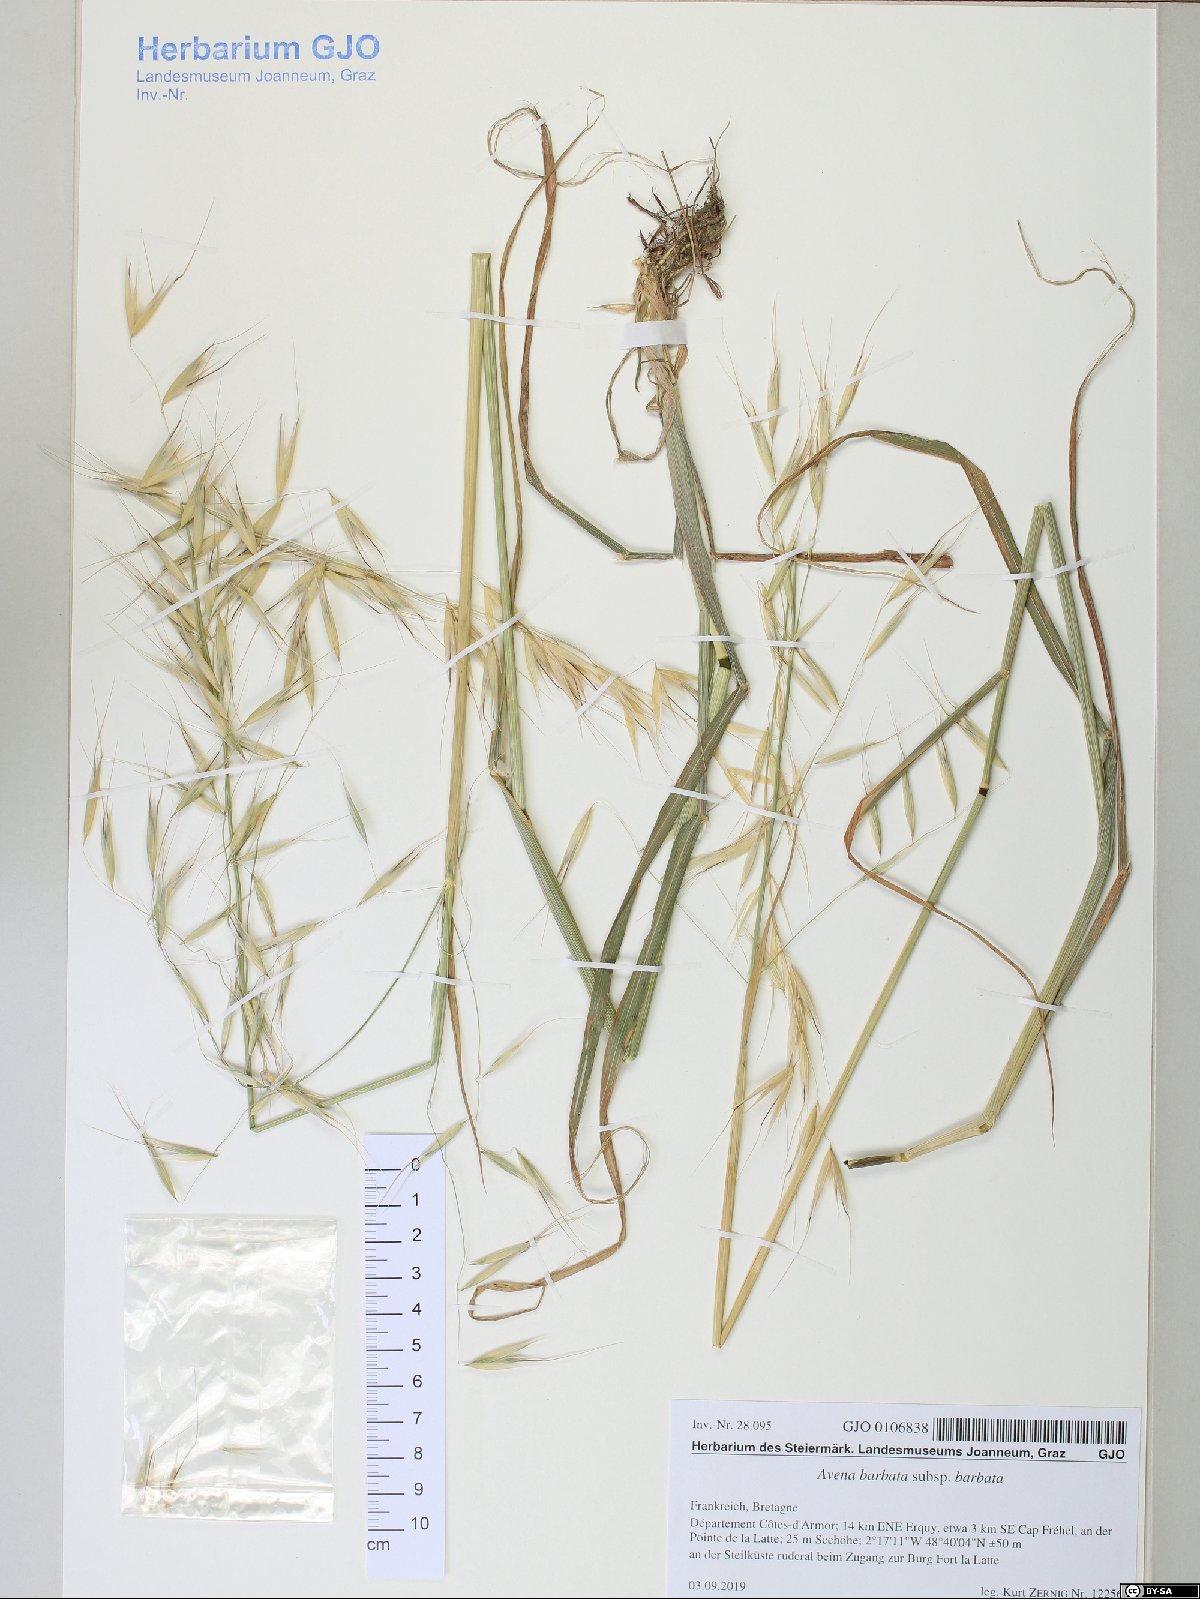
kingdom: Plantae
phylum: Tracheophyta
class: Liliopsida
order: Poales
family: Poaceae
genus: Avena
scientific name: Avena barbata
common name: Slender oat
